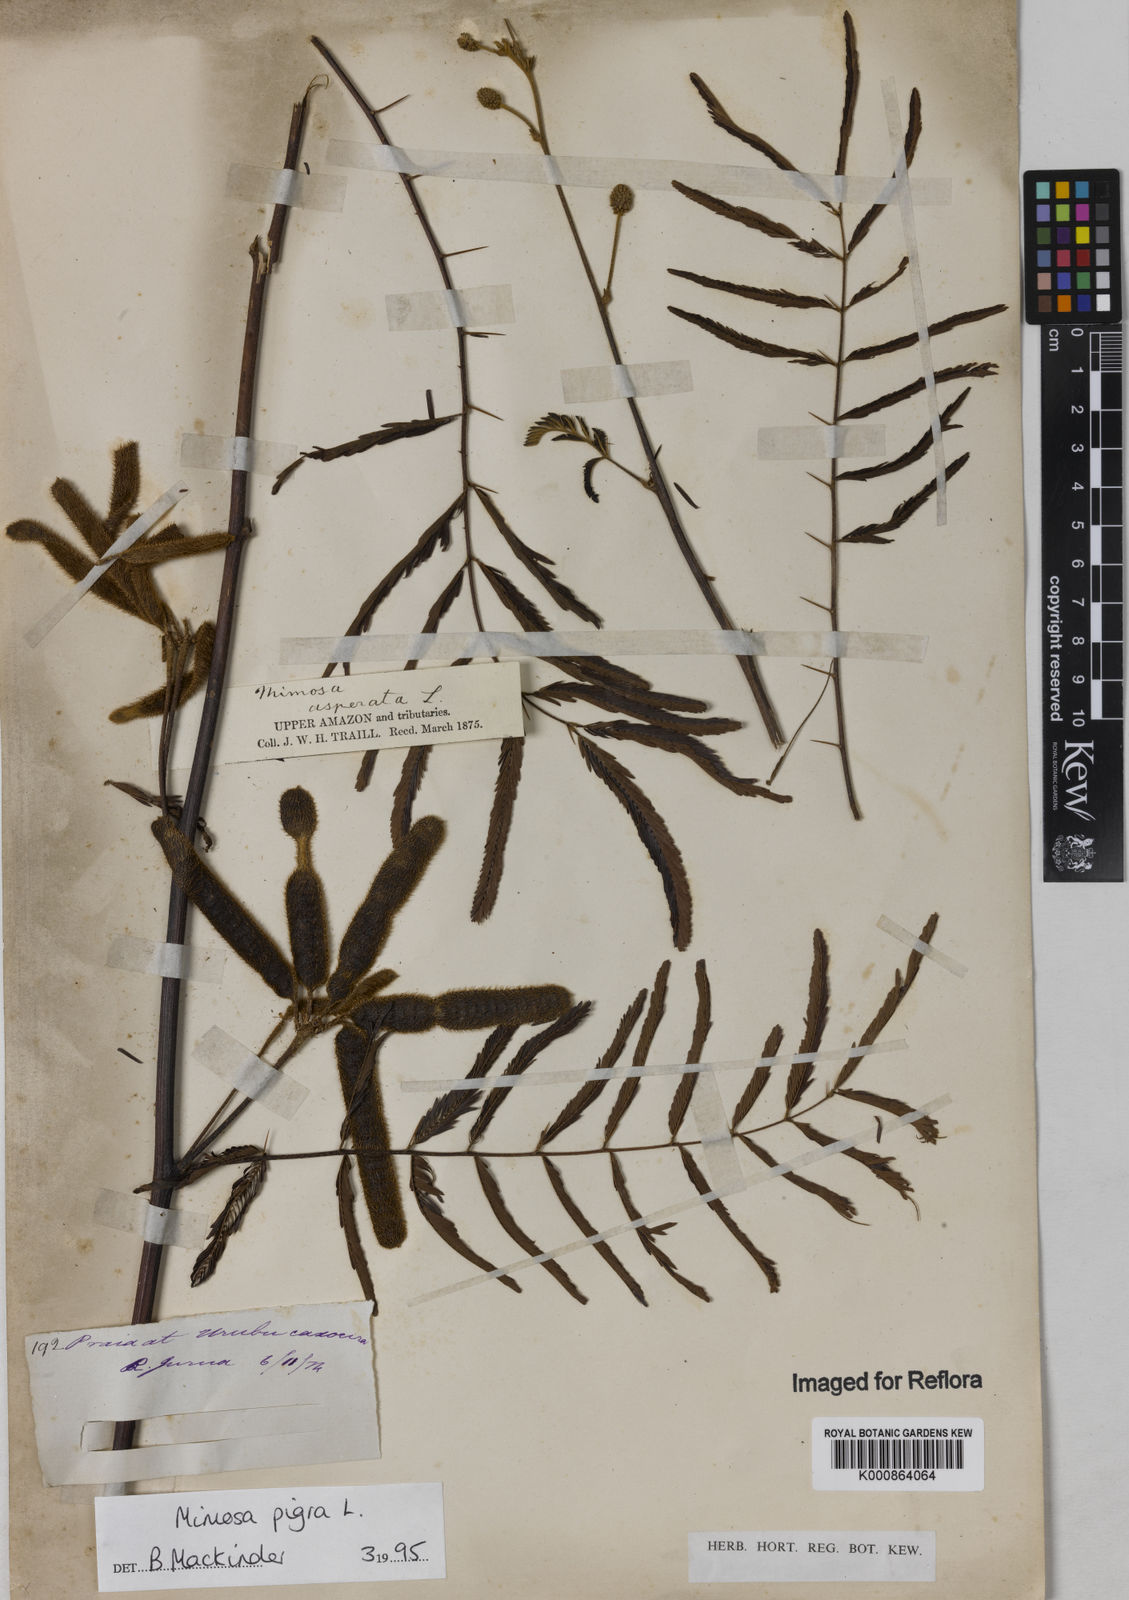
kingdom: Plantae
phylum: Tracheophyta
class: Magnoliopsida
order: Fabales
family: Fabaceae
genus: Mimosa
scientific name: Mimosa pigra
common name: Black mimosa
